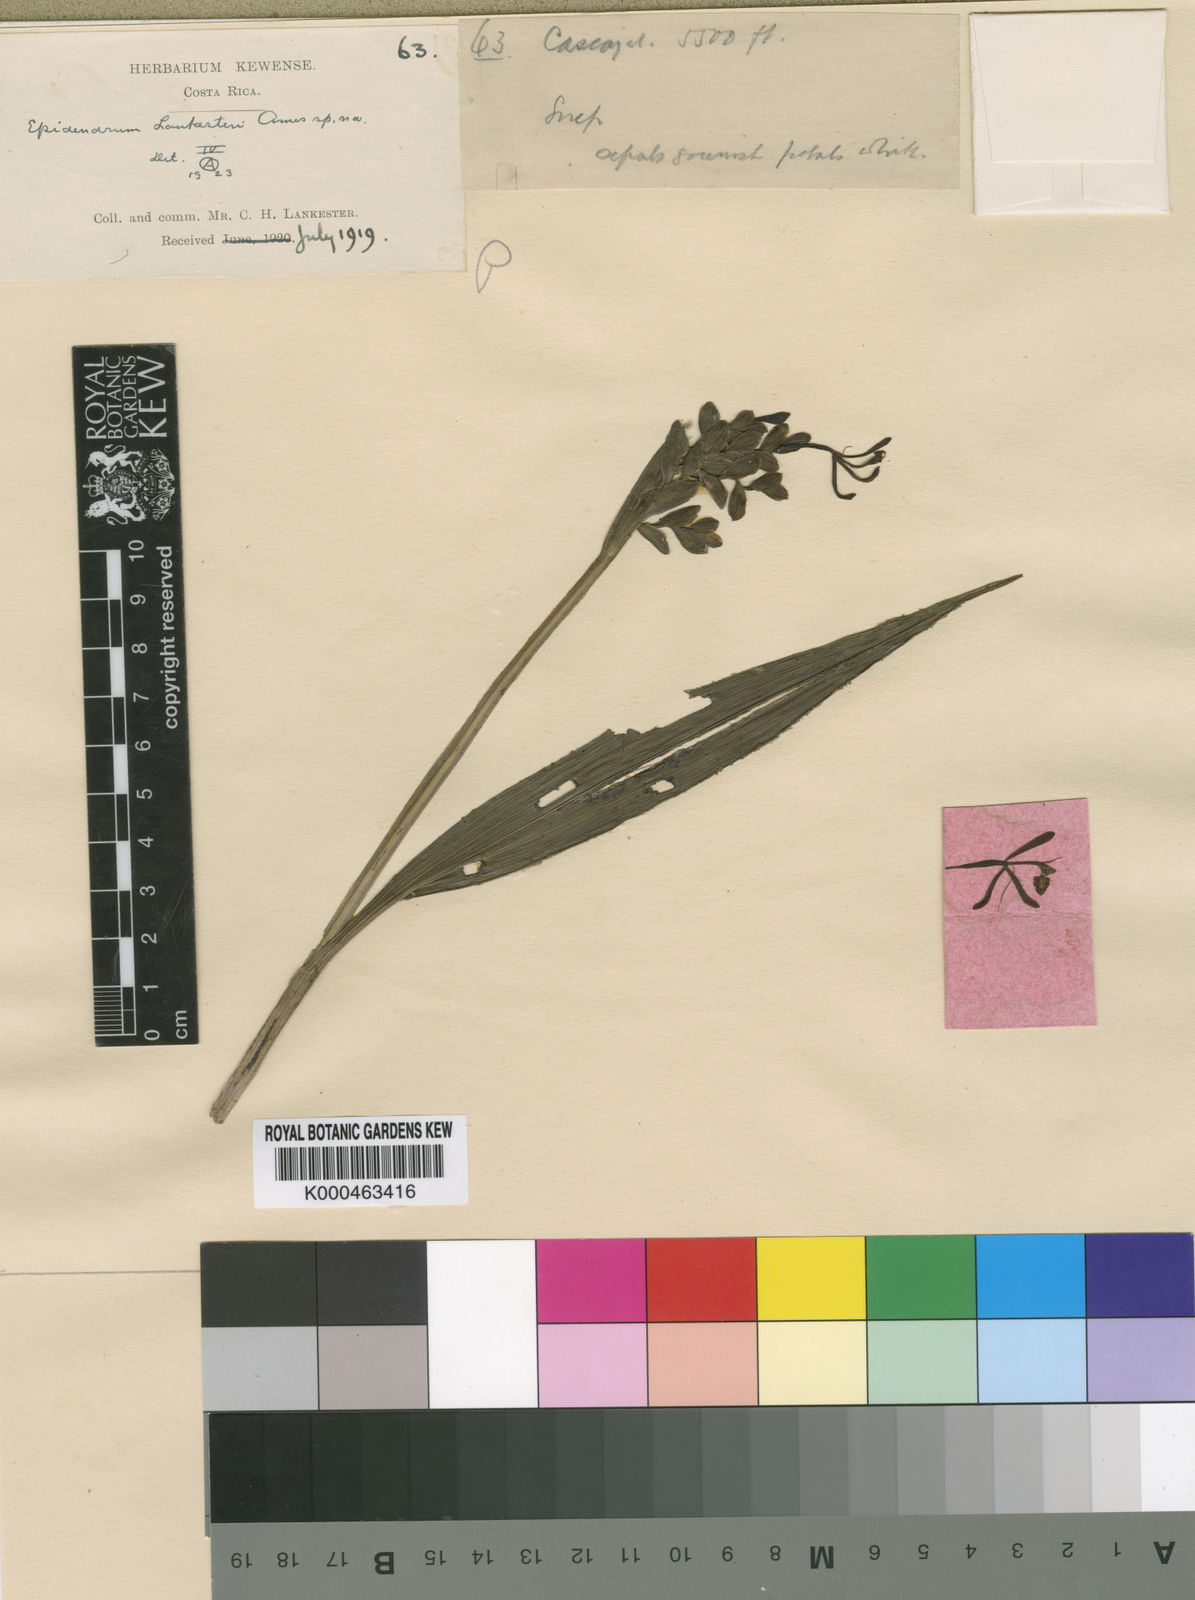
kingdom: Plantae
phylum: Tracheophyta
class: Liliopsida
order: Asparagales
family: Orchidaceae
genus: Epidendrum
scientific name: Epidendrum lankesteri
